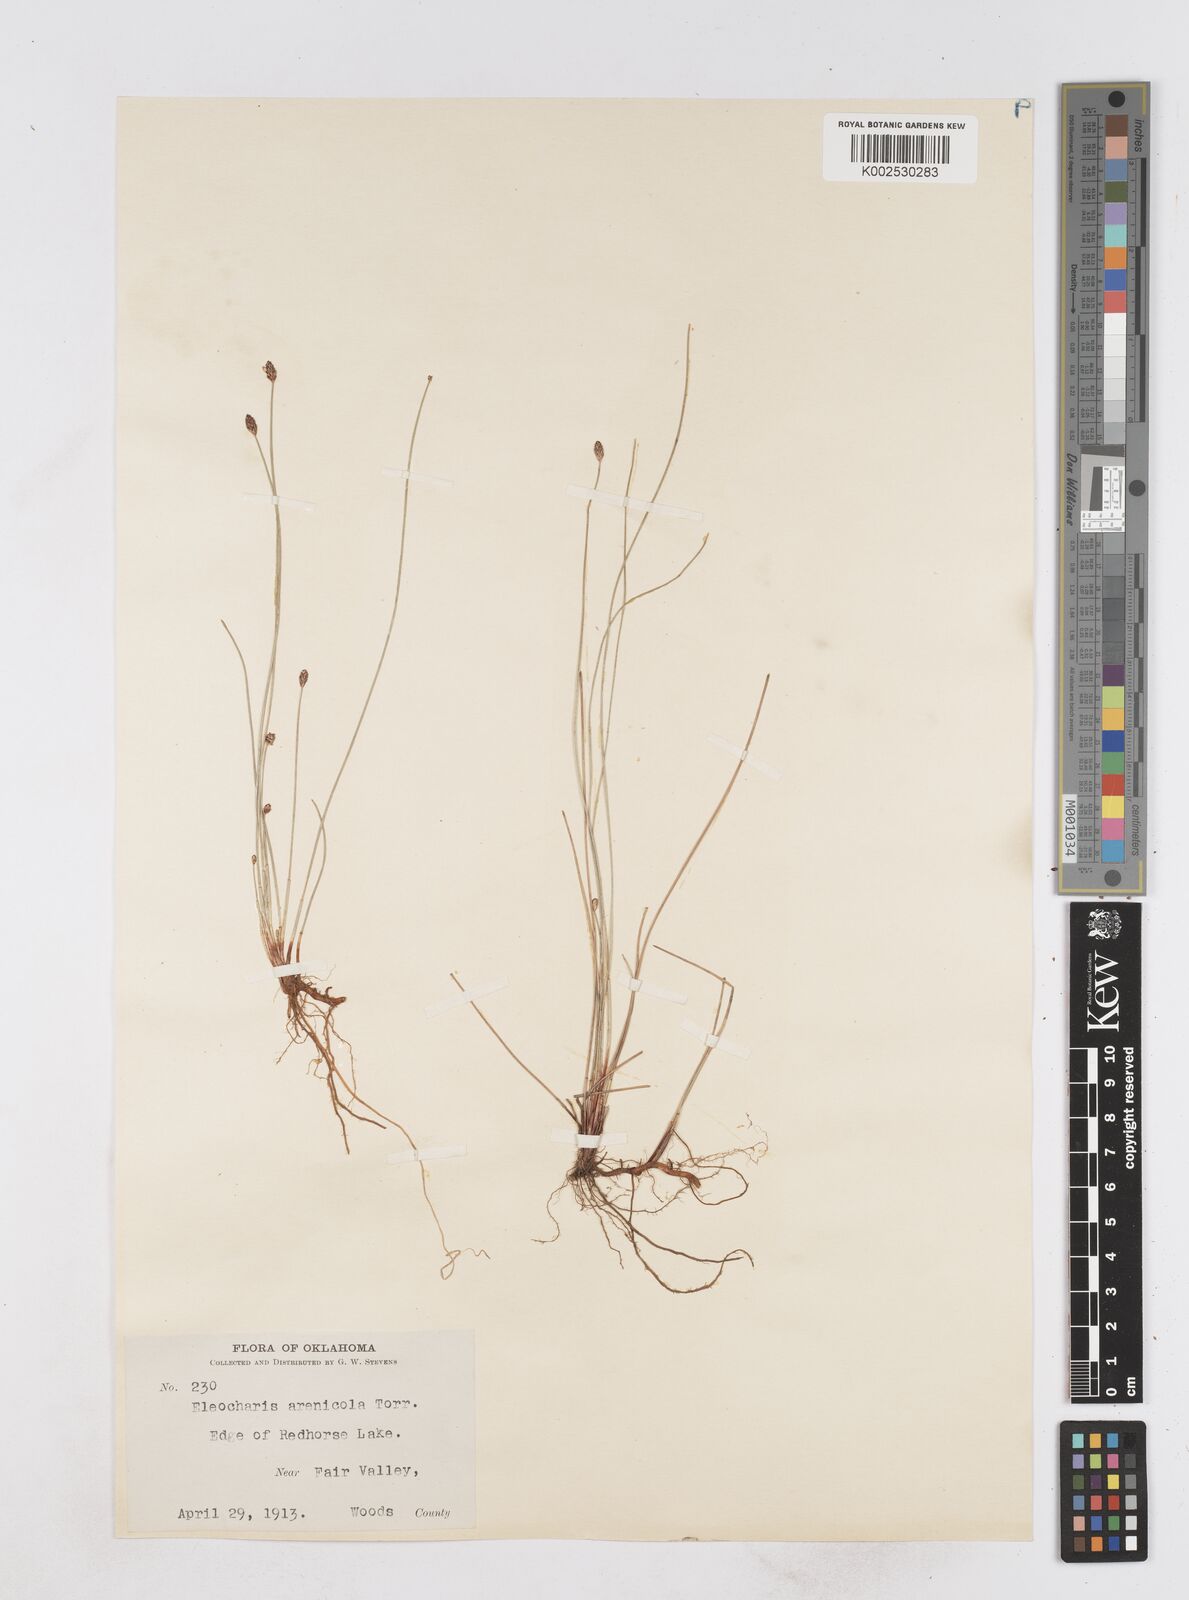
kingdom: Plantae
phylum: Tracheophyta
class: Liliopsida
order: Poales
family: Cyperaceae
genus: Eleocharis
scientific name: Eleocharis montevidensis
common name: Sand spike-rush
